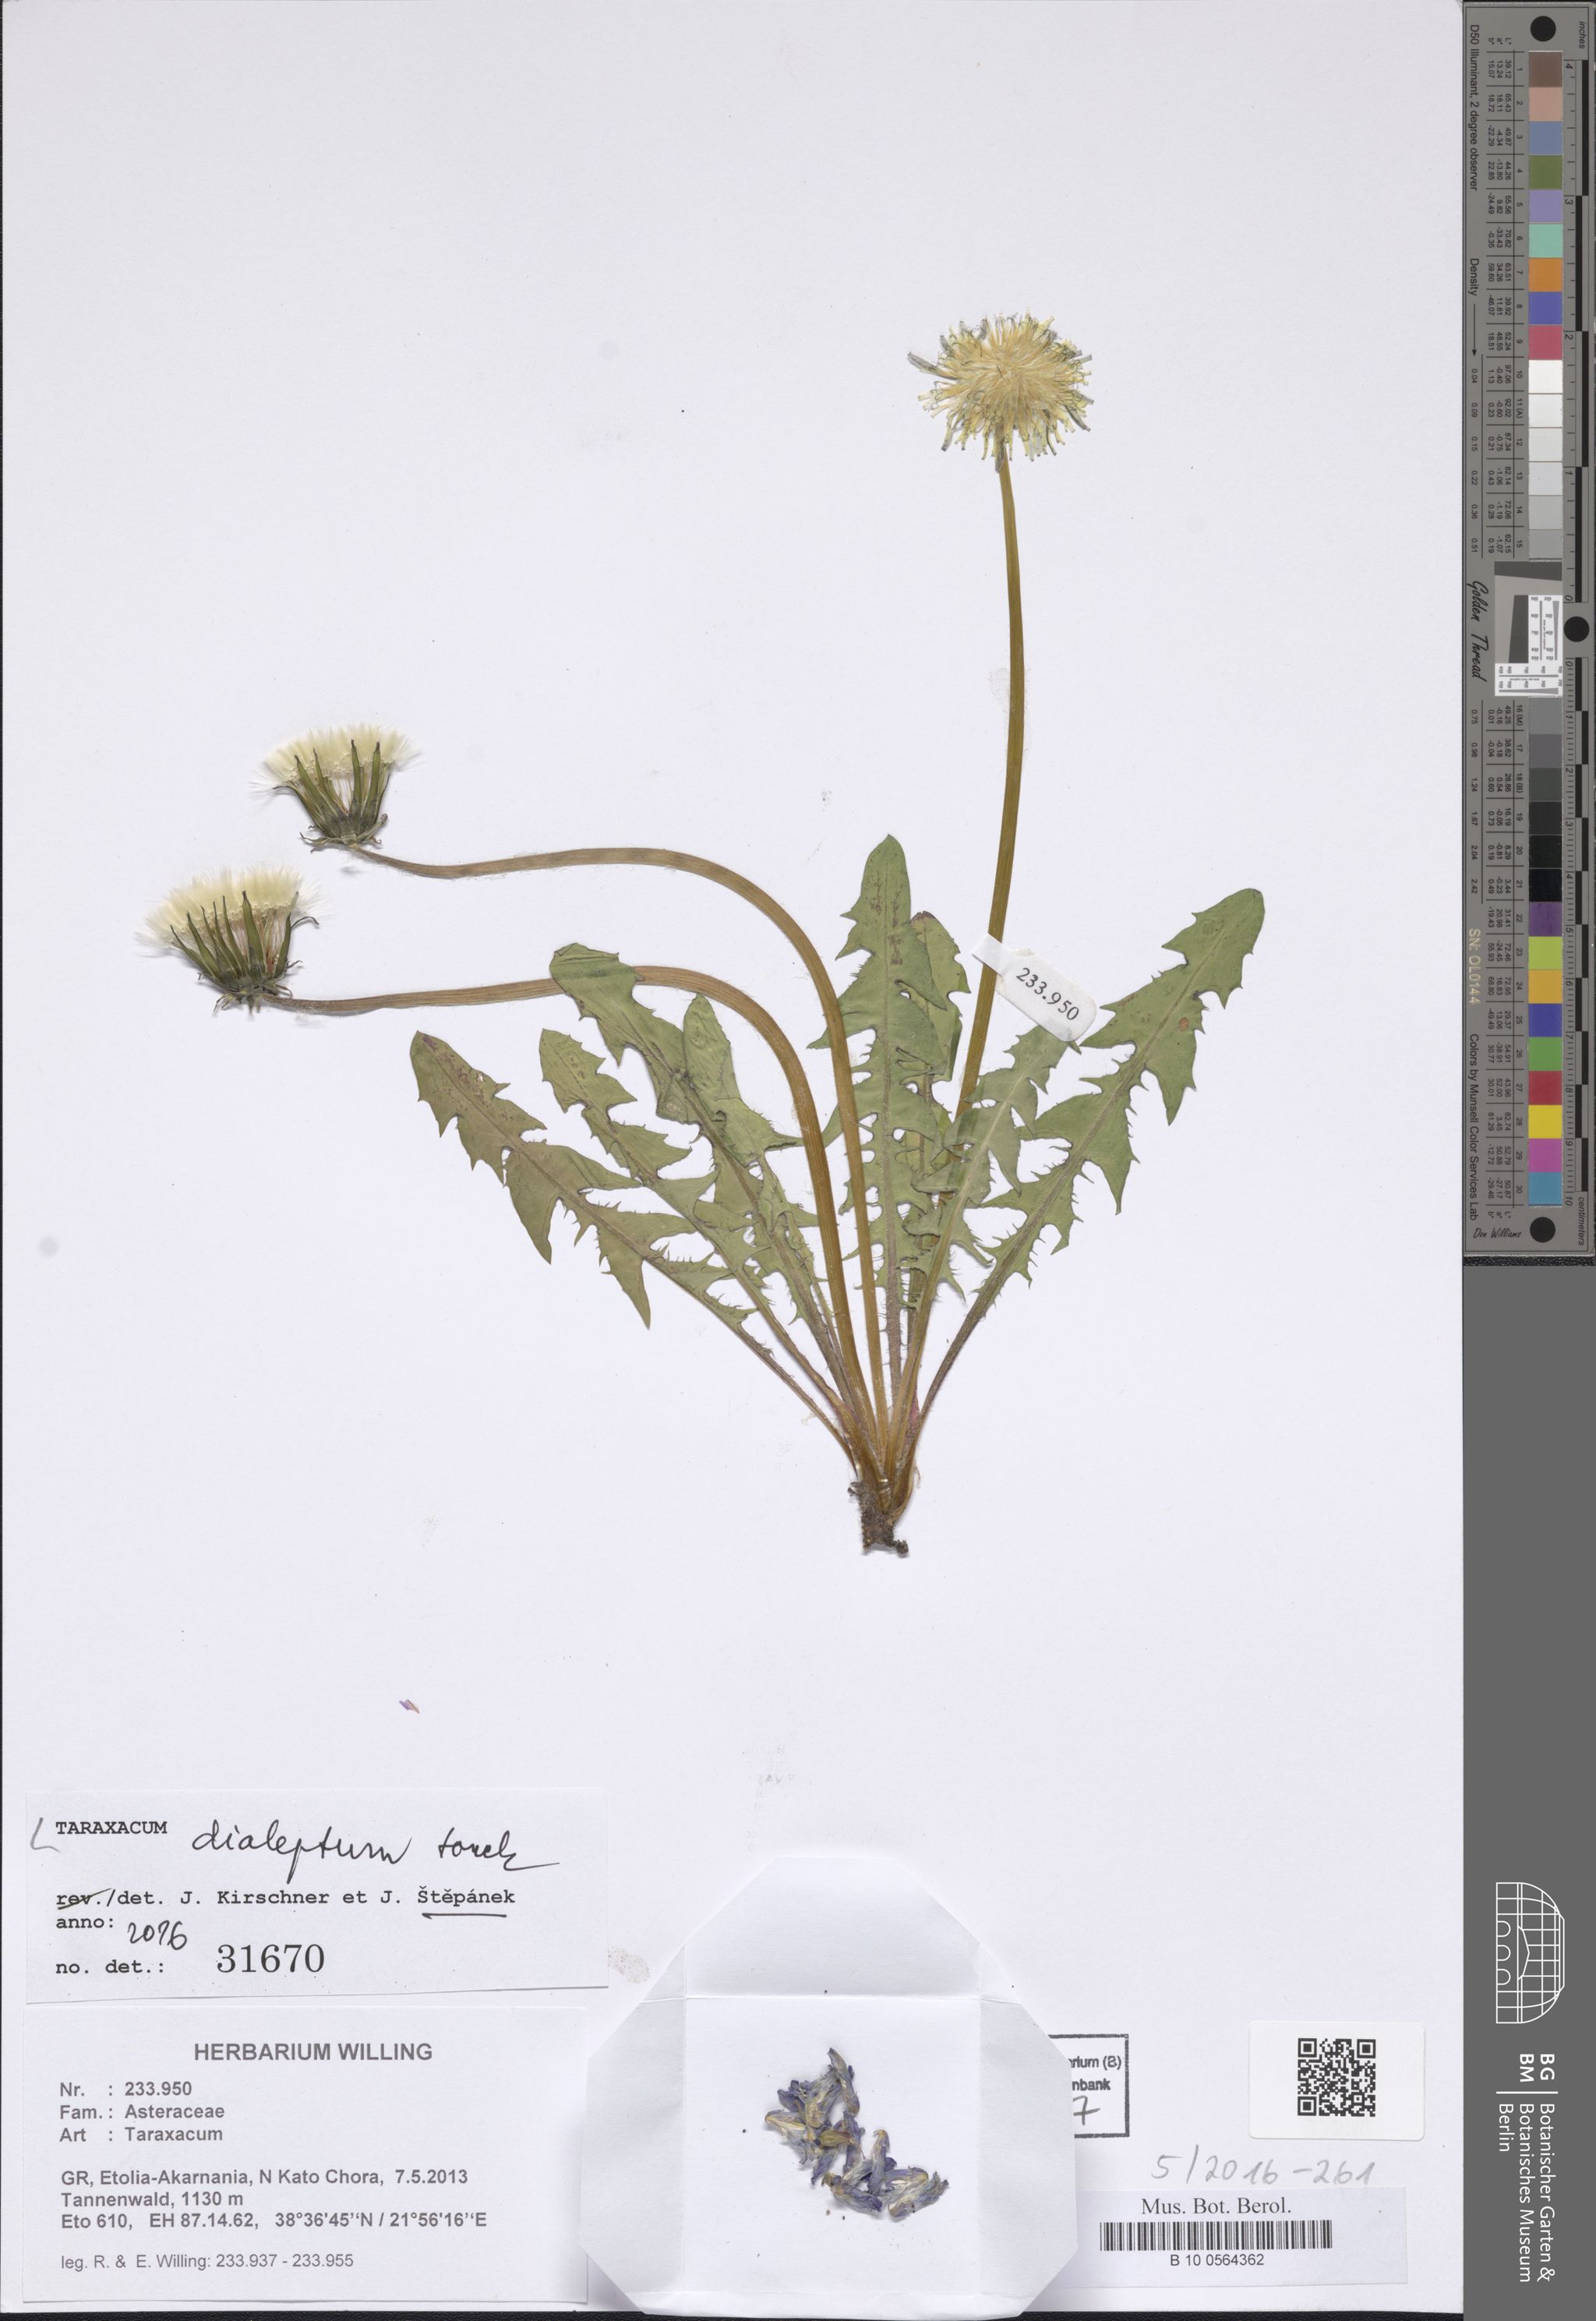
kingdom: Plantae
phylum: Tracheophyta
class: Magnoliopsida
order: Asterales
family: Asteraceae
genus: Taraxacum
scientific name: Taraxacum dialeptum
